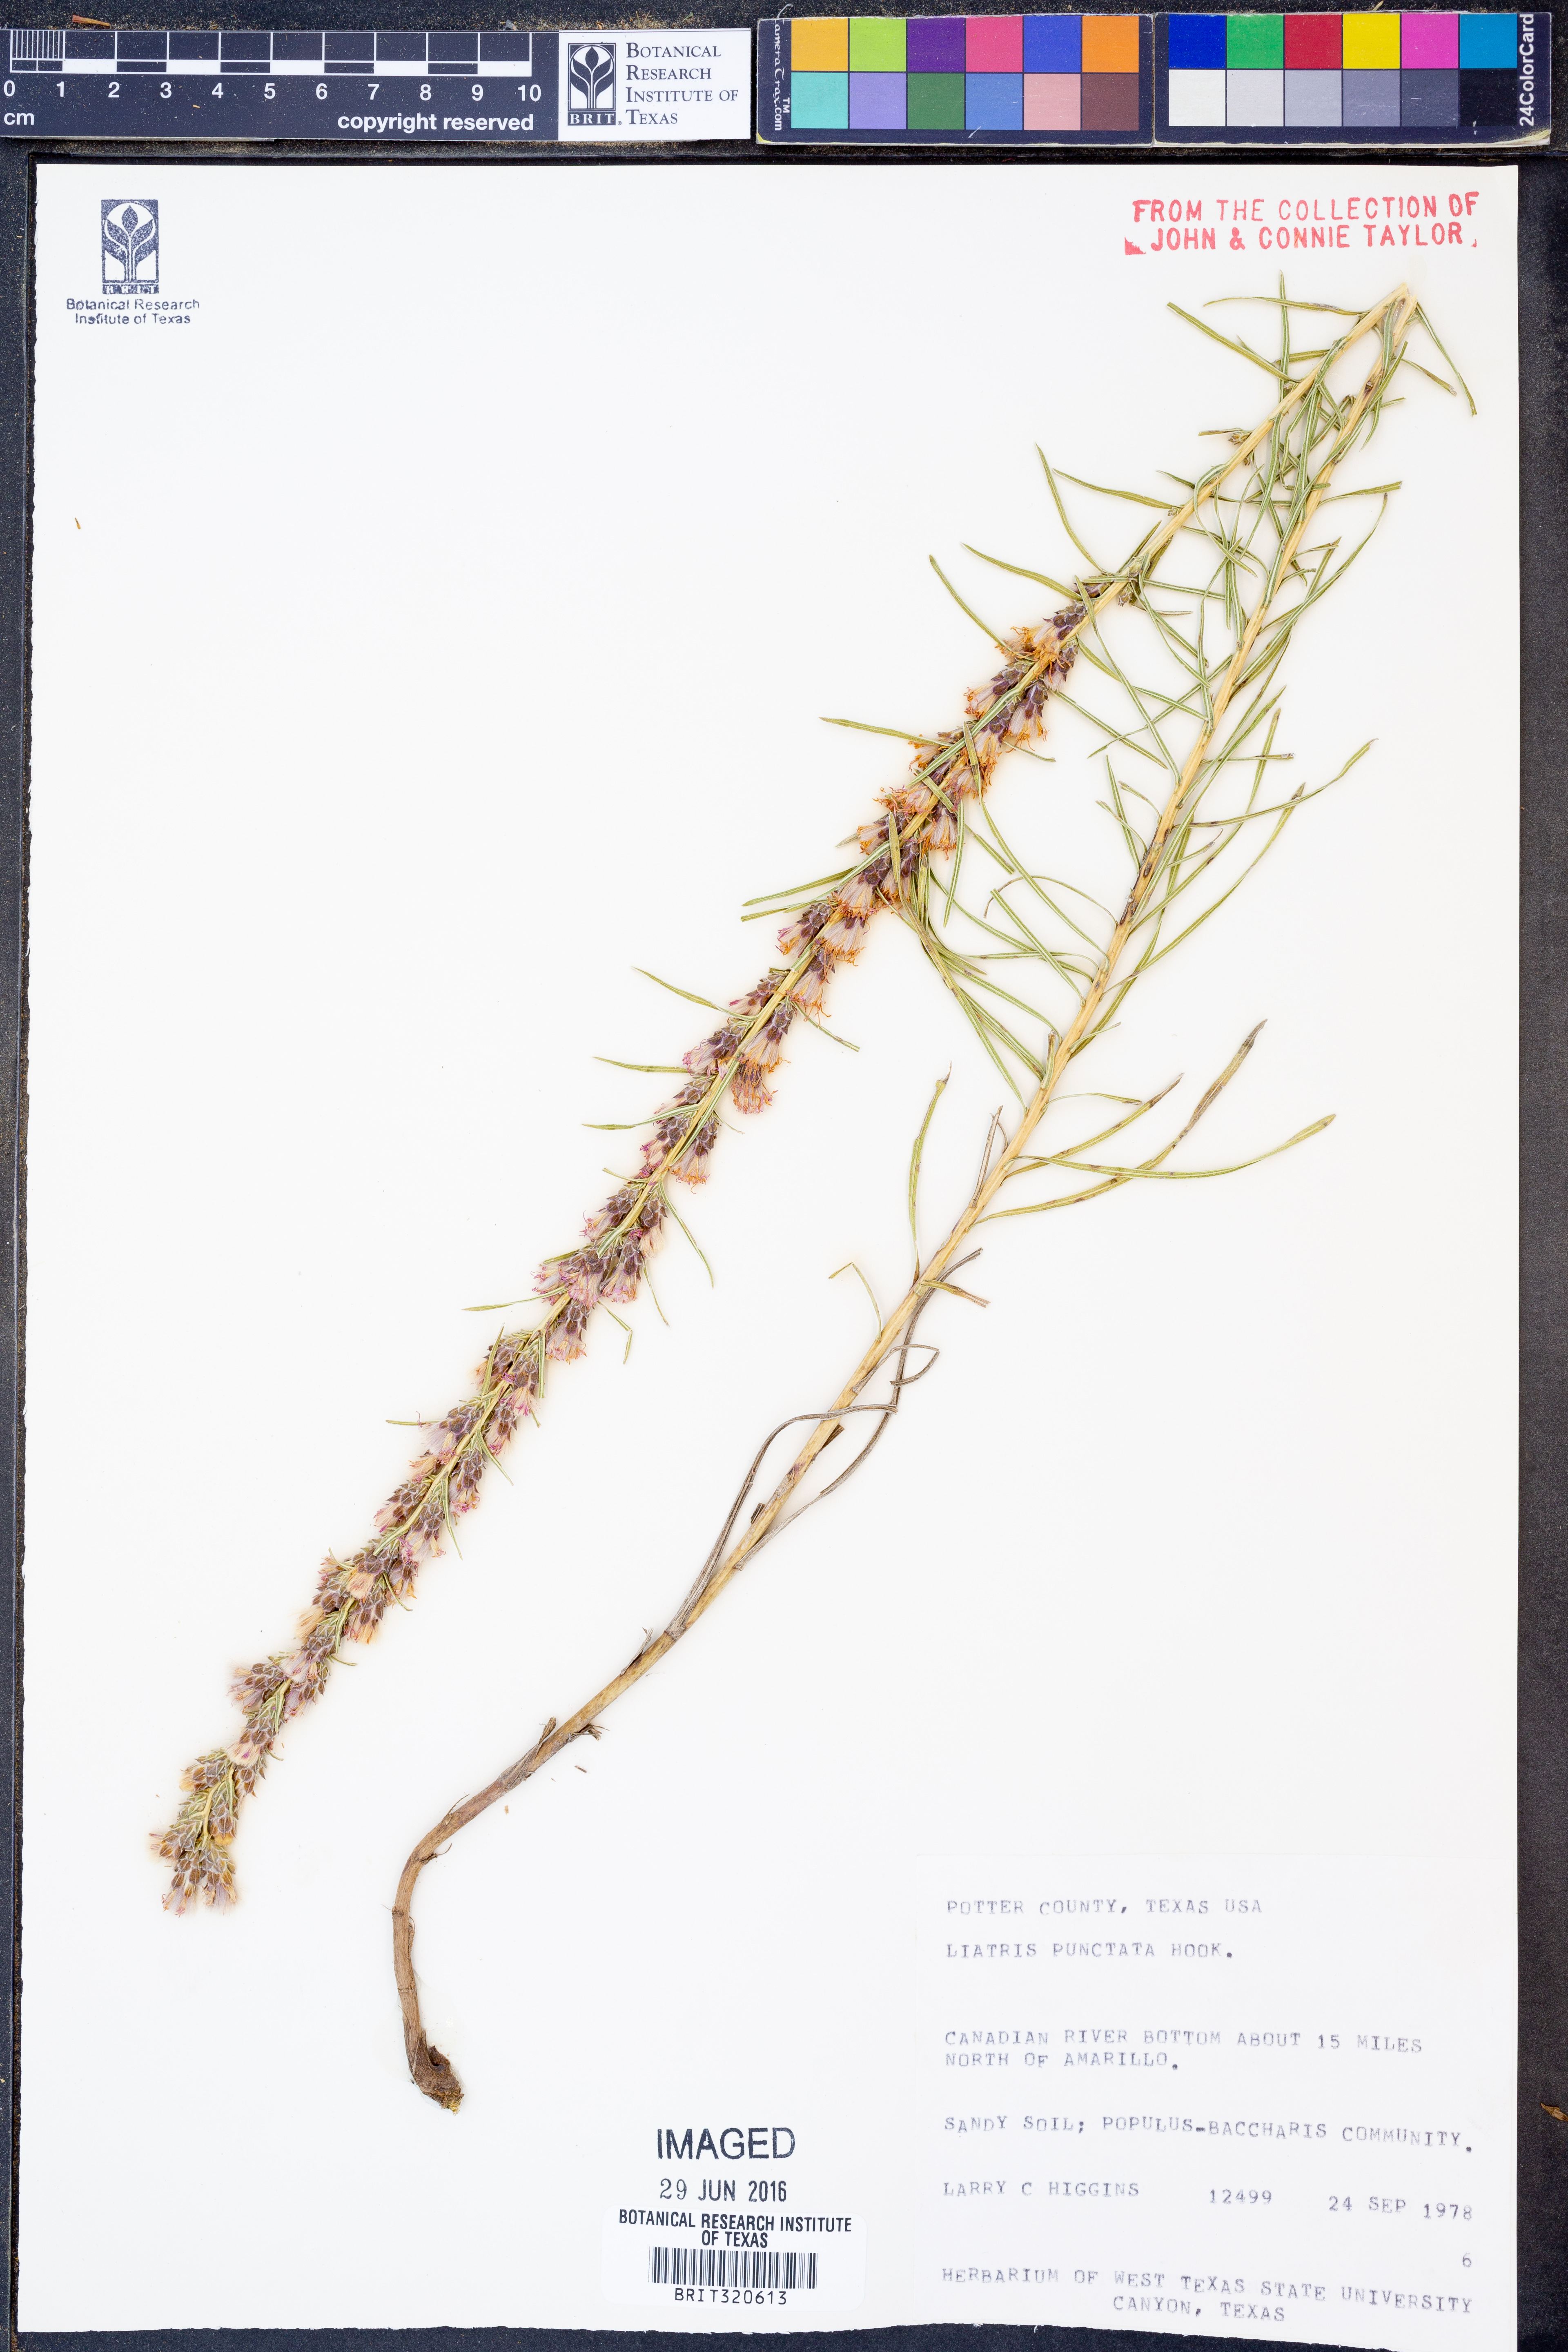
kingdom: Plantae
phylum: Tracheophyta
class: Magnoliopsida
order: Asterales
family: Asteraceae
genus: Liatris
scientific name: Liatris punctata
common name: Dotted gayfeather
